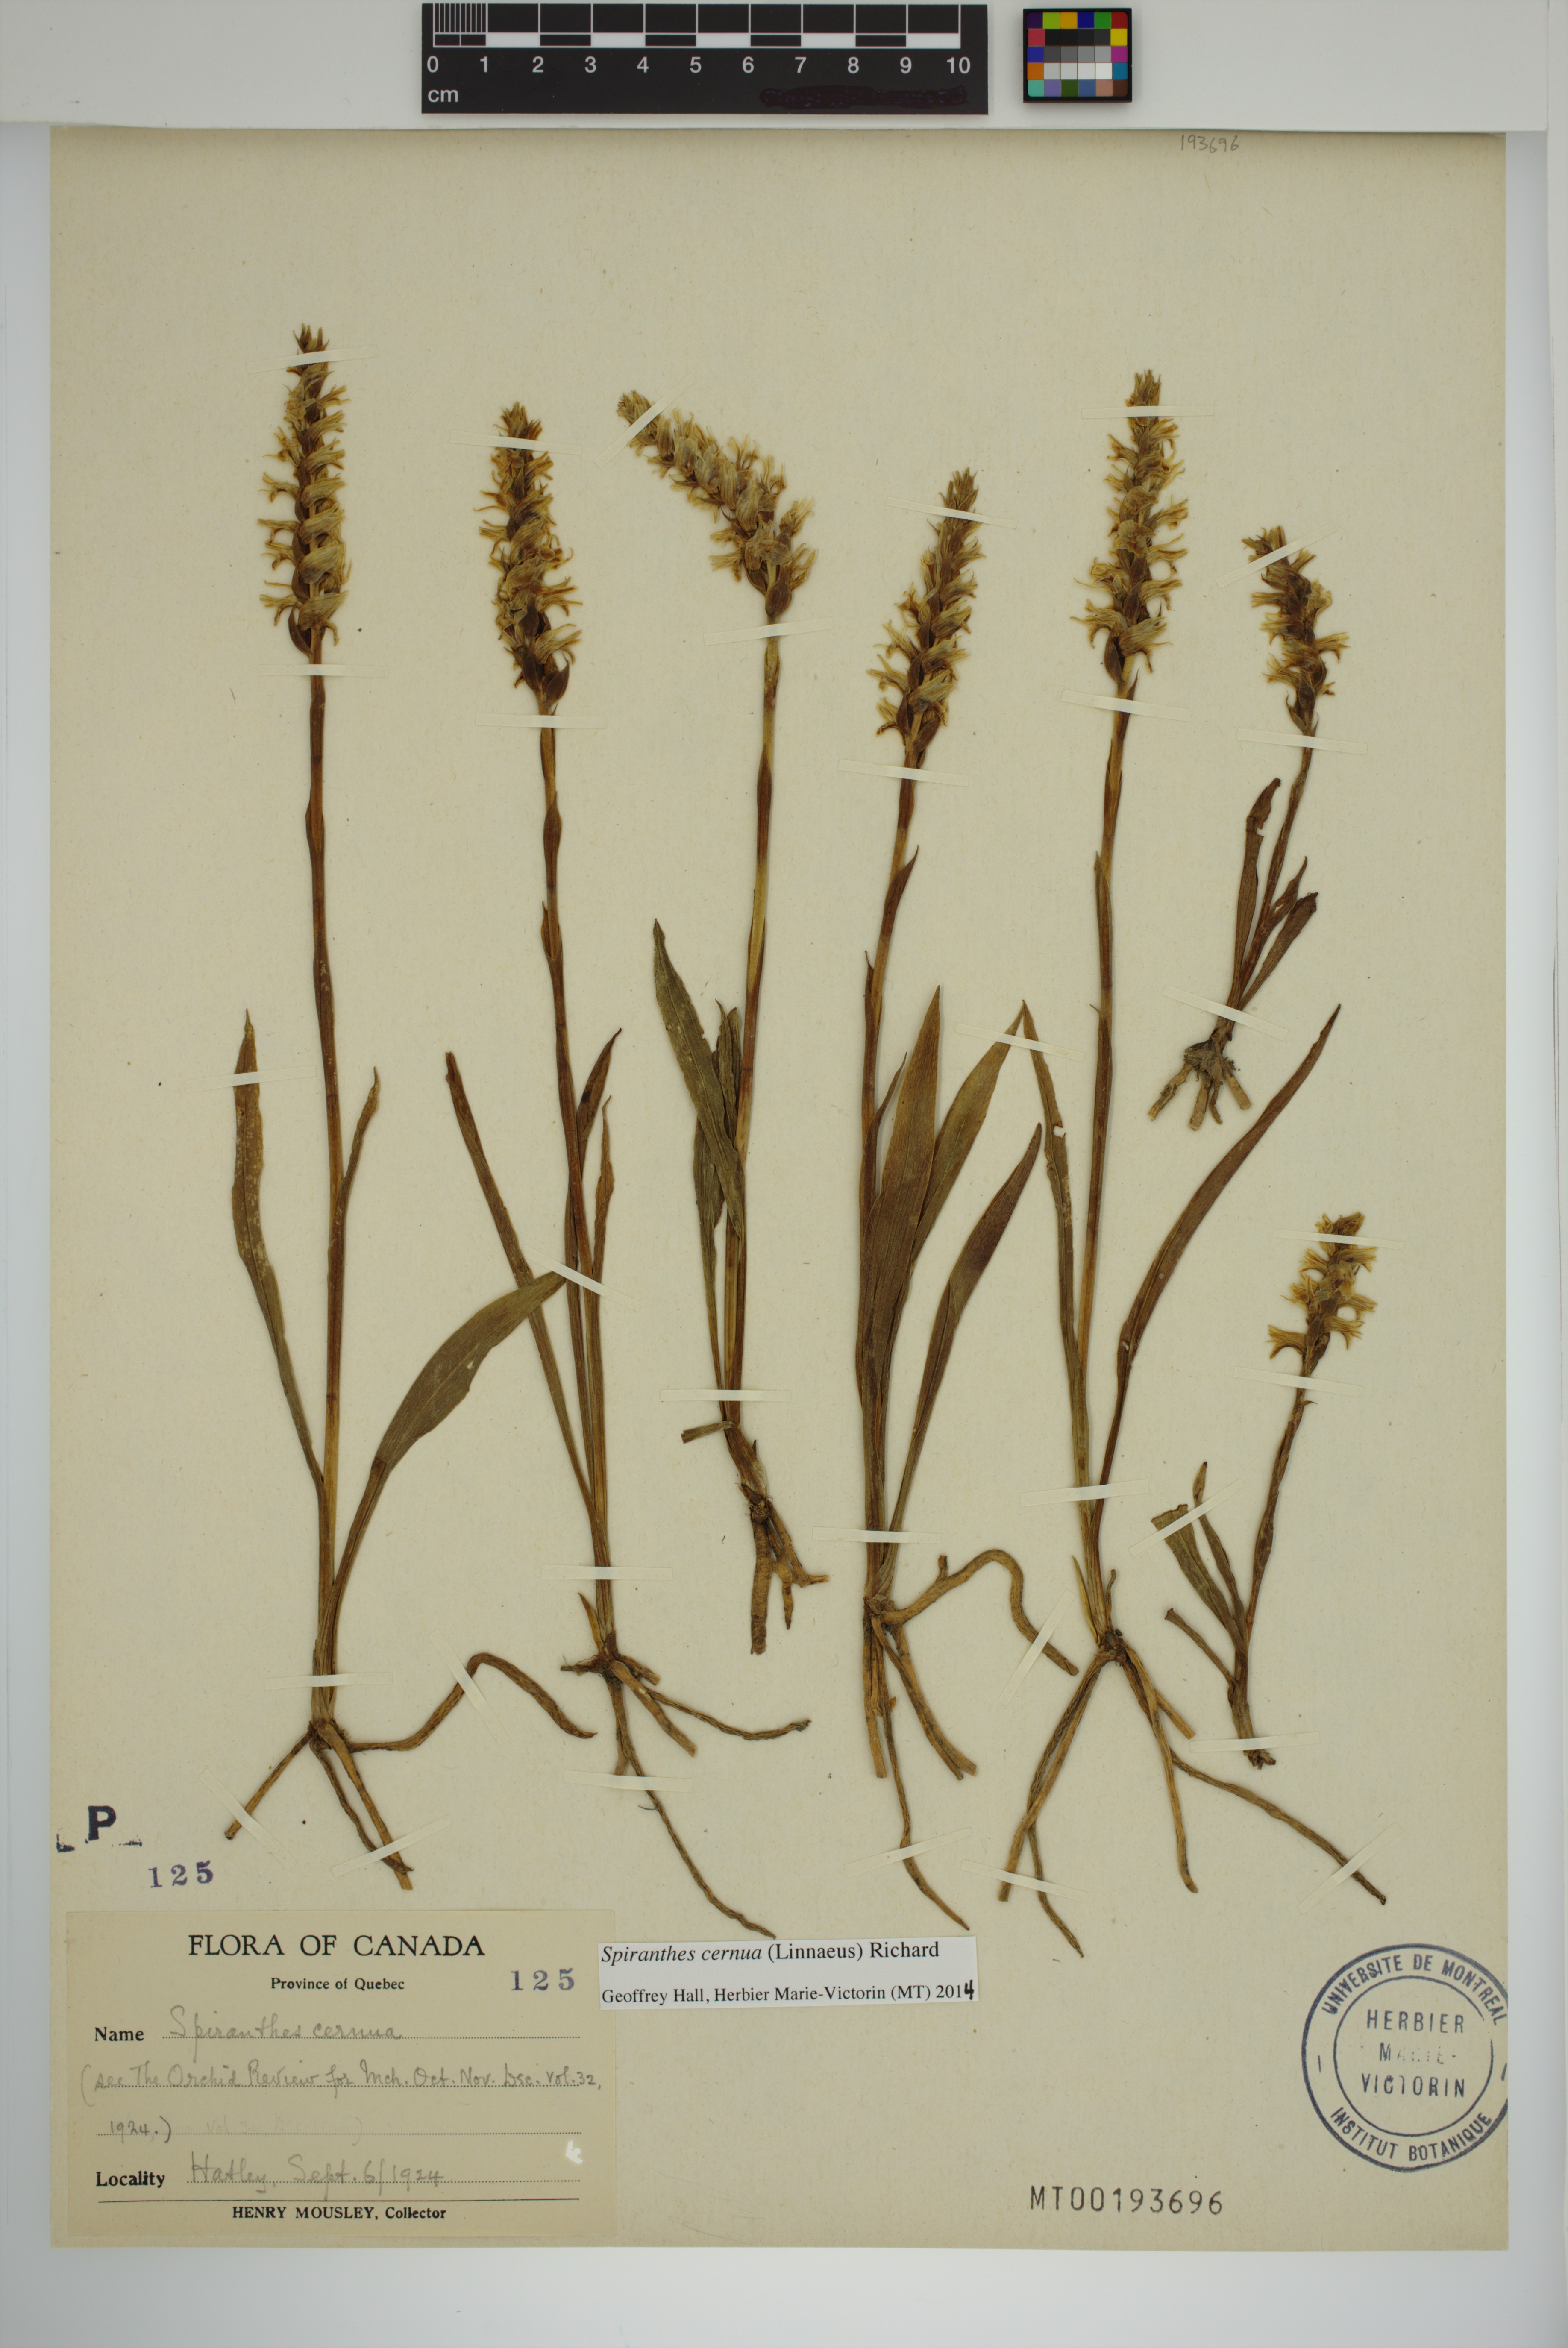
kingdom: Plantae
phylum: Tracheophyta
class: Liliopsida
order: Asparagales
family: Orchidaceae
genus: Spiranthes
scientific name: Spiranthes cernua
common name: Dropping ladies'-tresses
